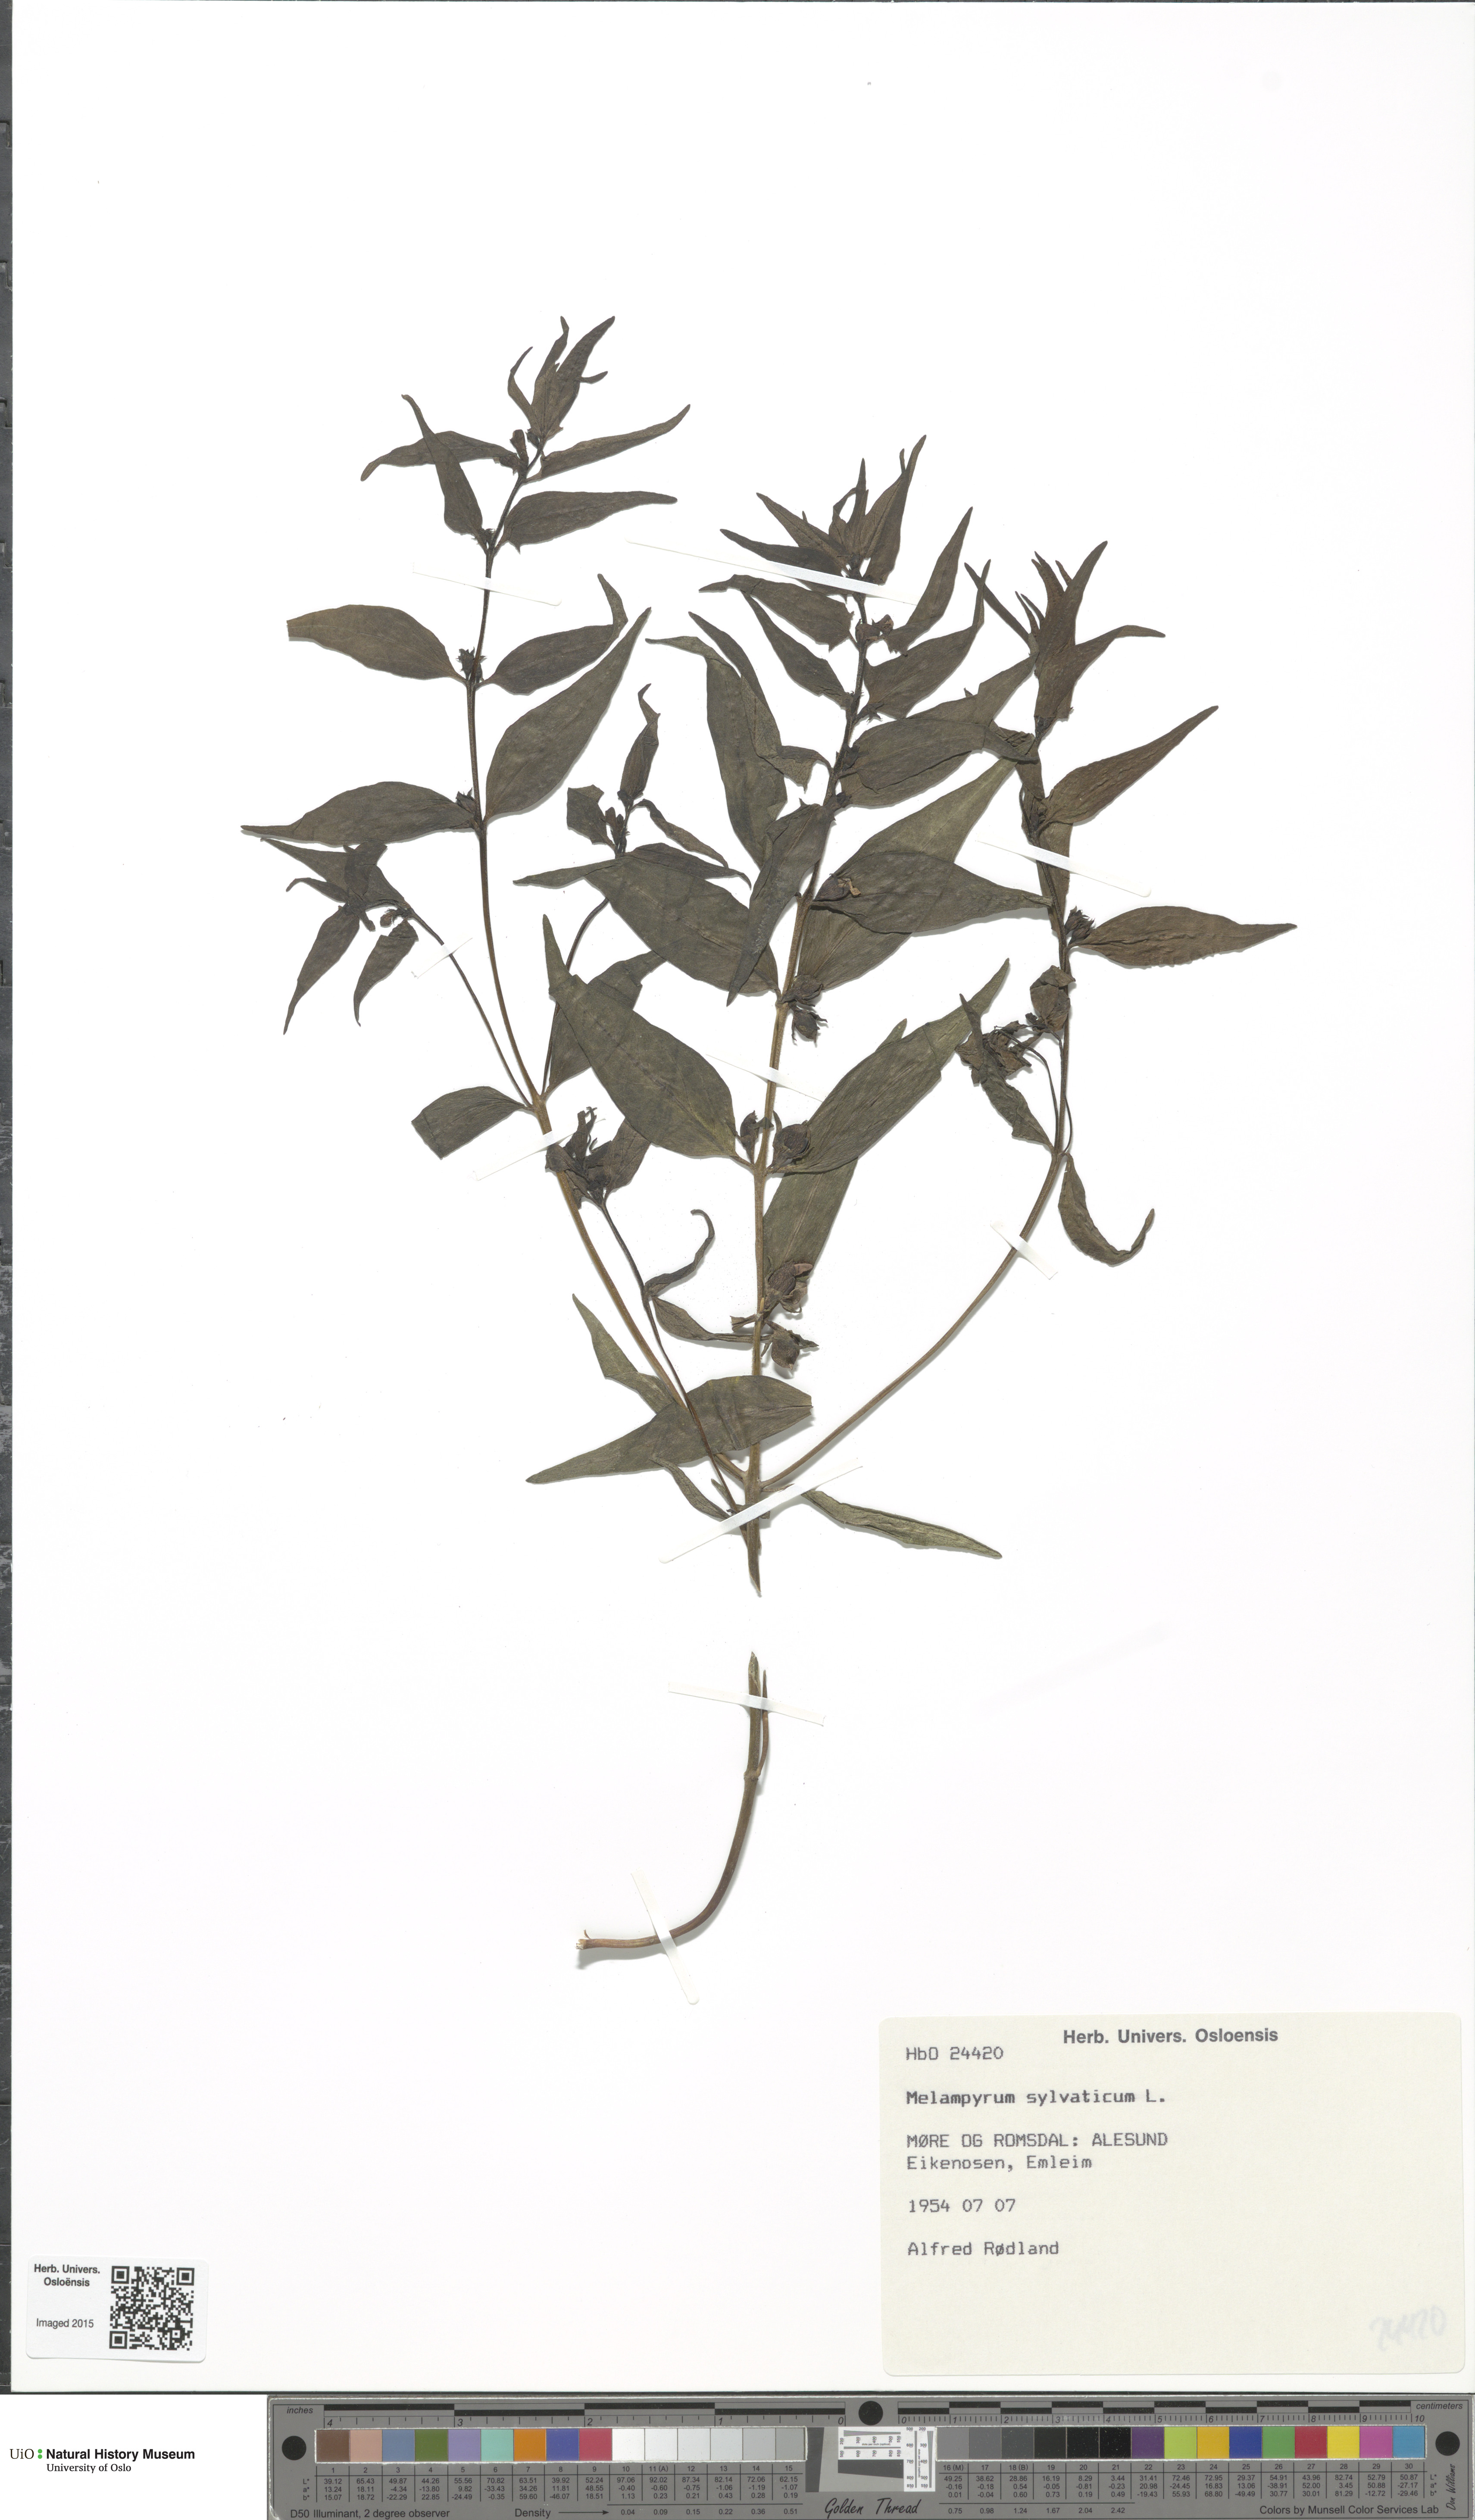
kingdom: Plantae
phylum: Tracheophyta
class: Magnoliopsida
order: Lamiales
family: Orobanchaceae
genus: Melampyrum
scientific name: Melampyrum sylvaticum
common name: Small cow-wheat
